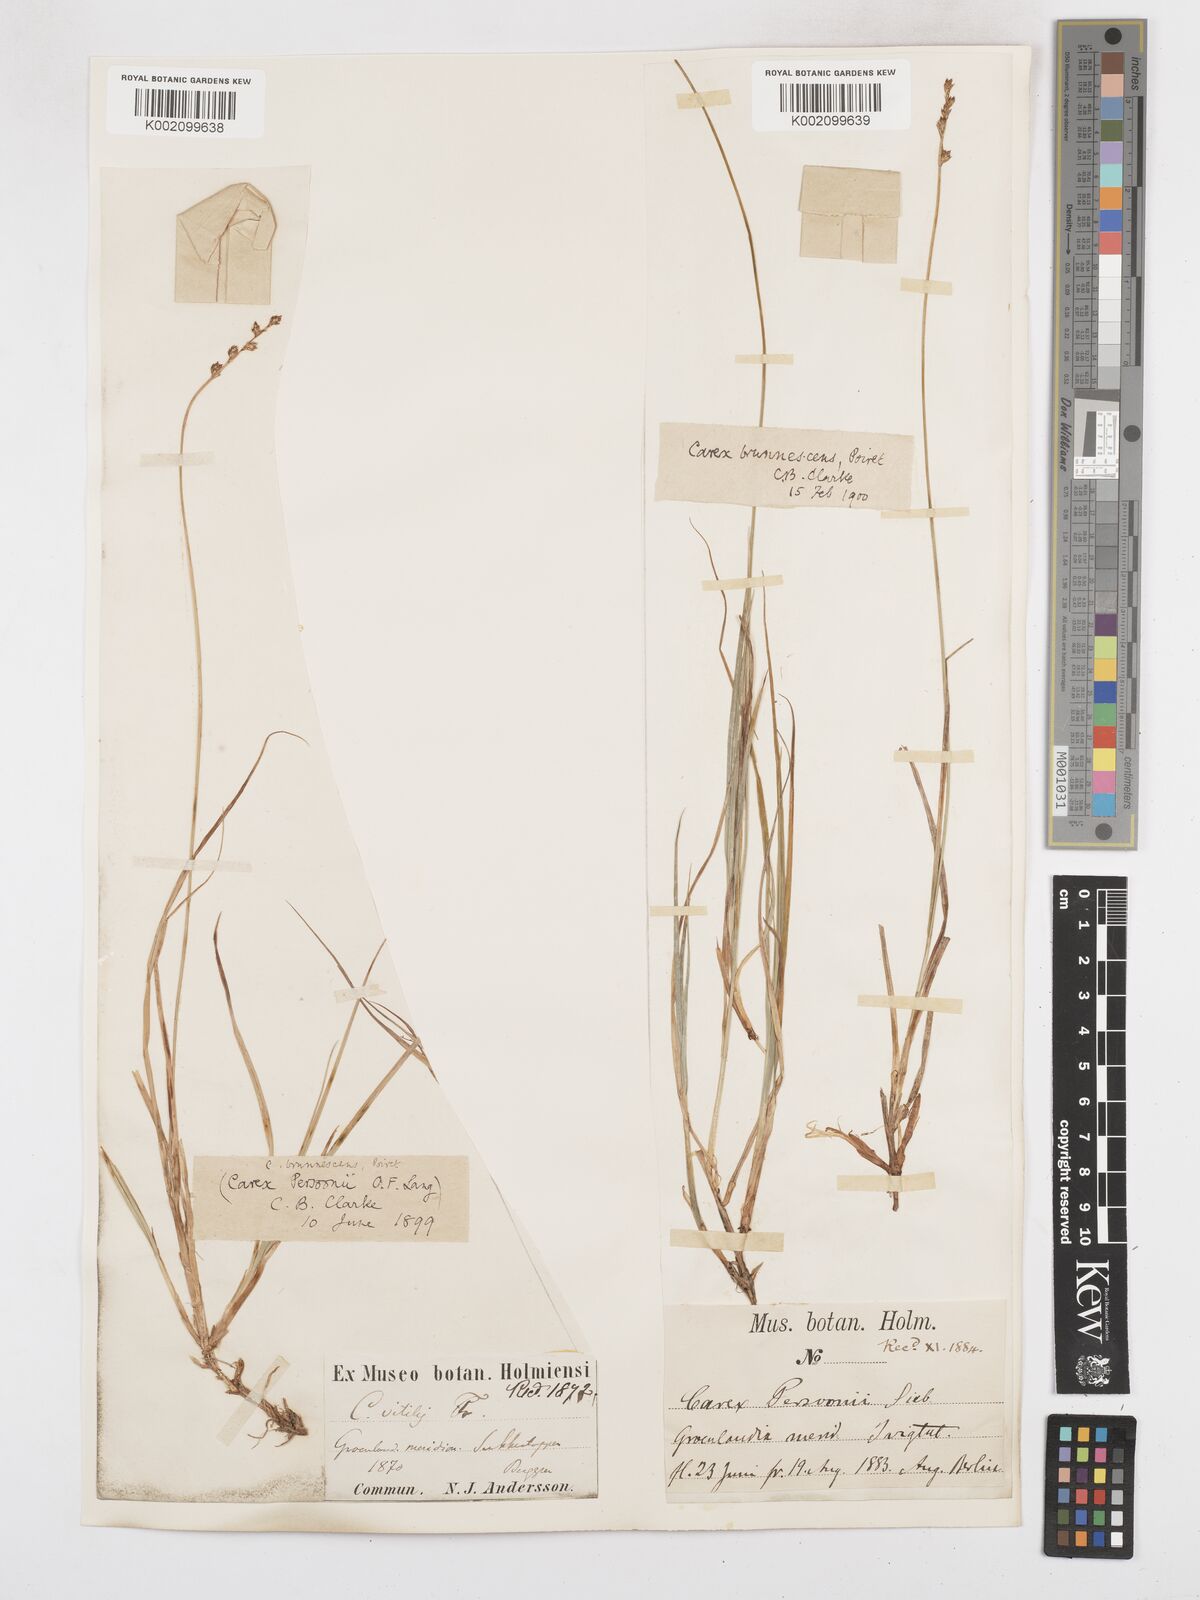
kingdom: Plantae
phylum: Tracheophyta
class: Liliopsida
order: Poales
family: Cyperaceae
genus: Carex
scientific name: Carex brunnescens
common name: Brown sedge
